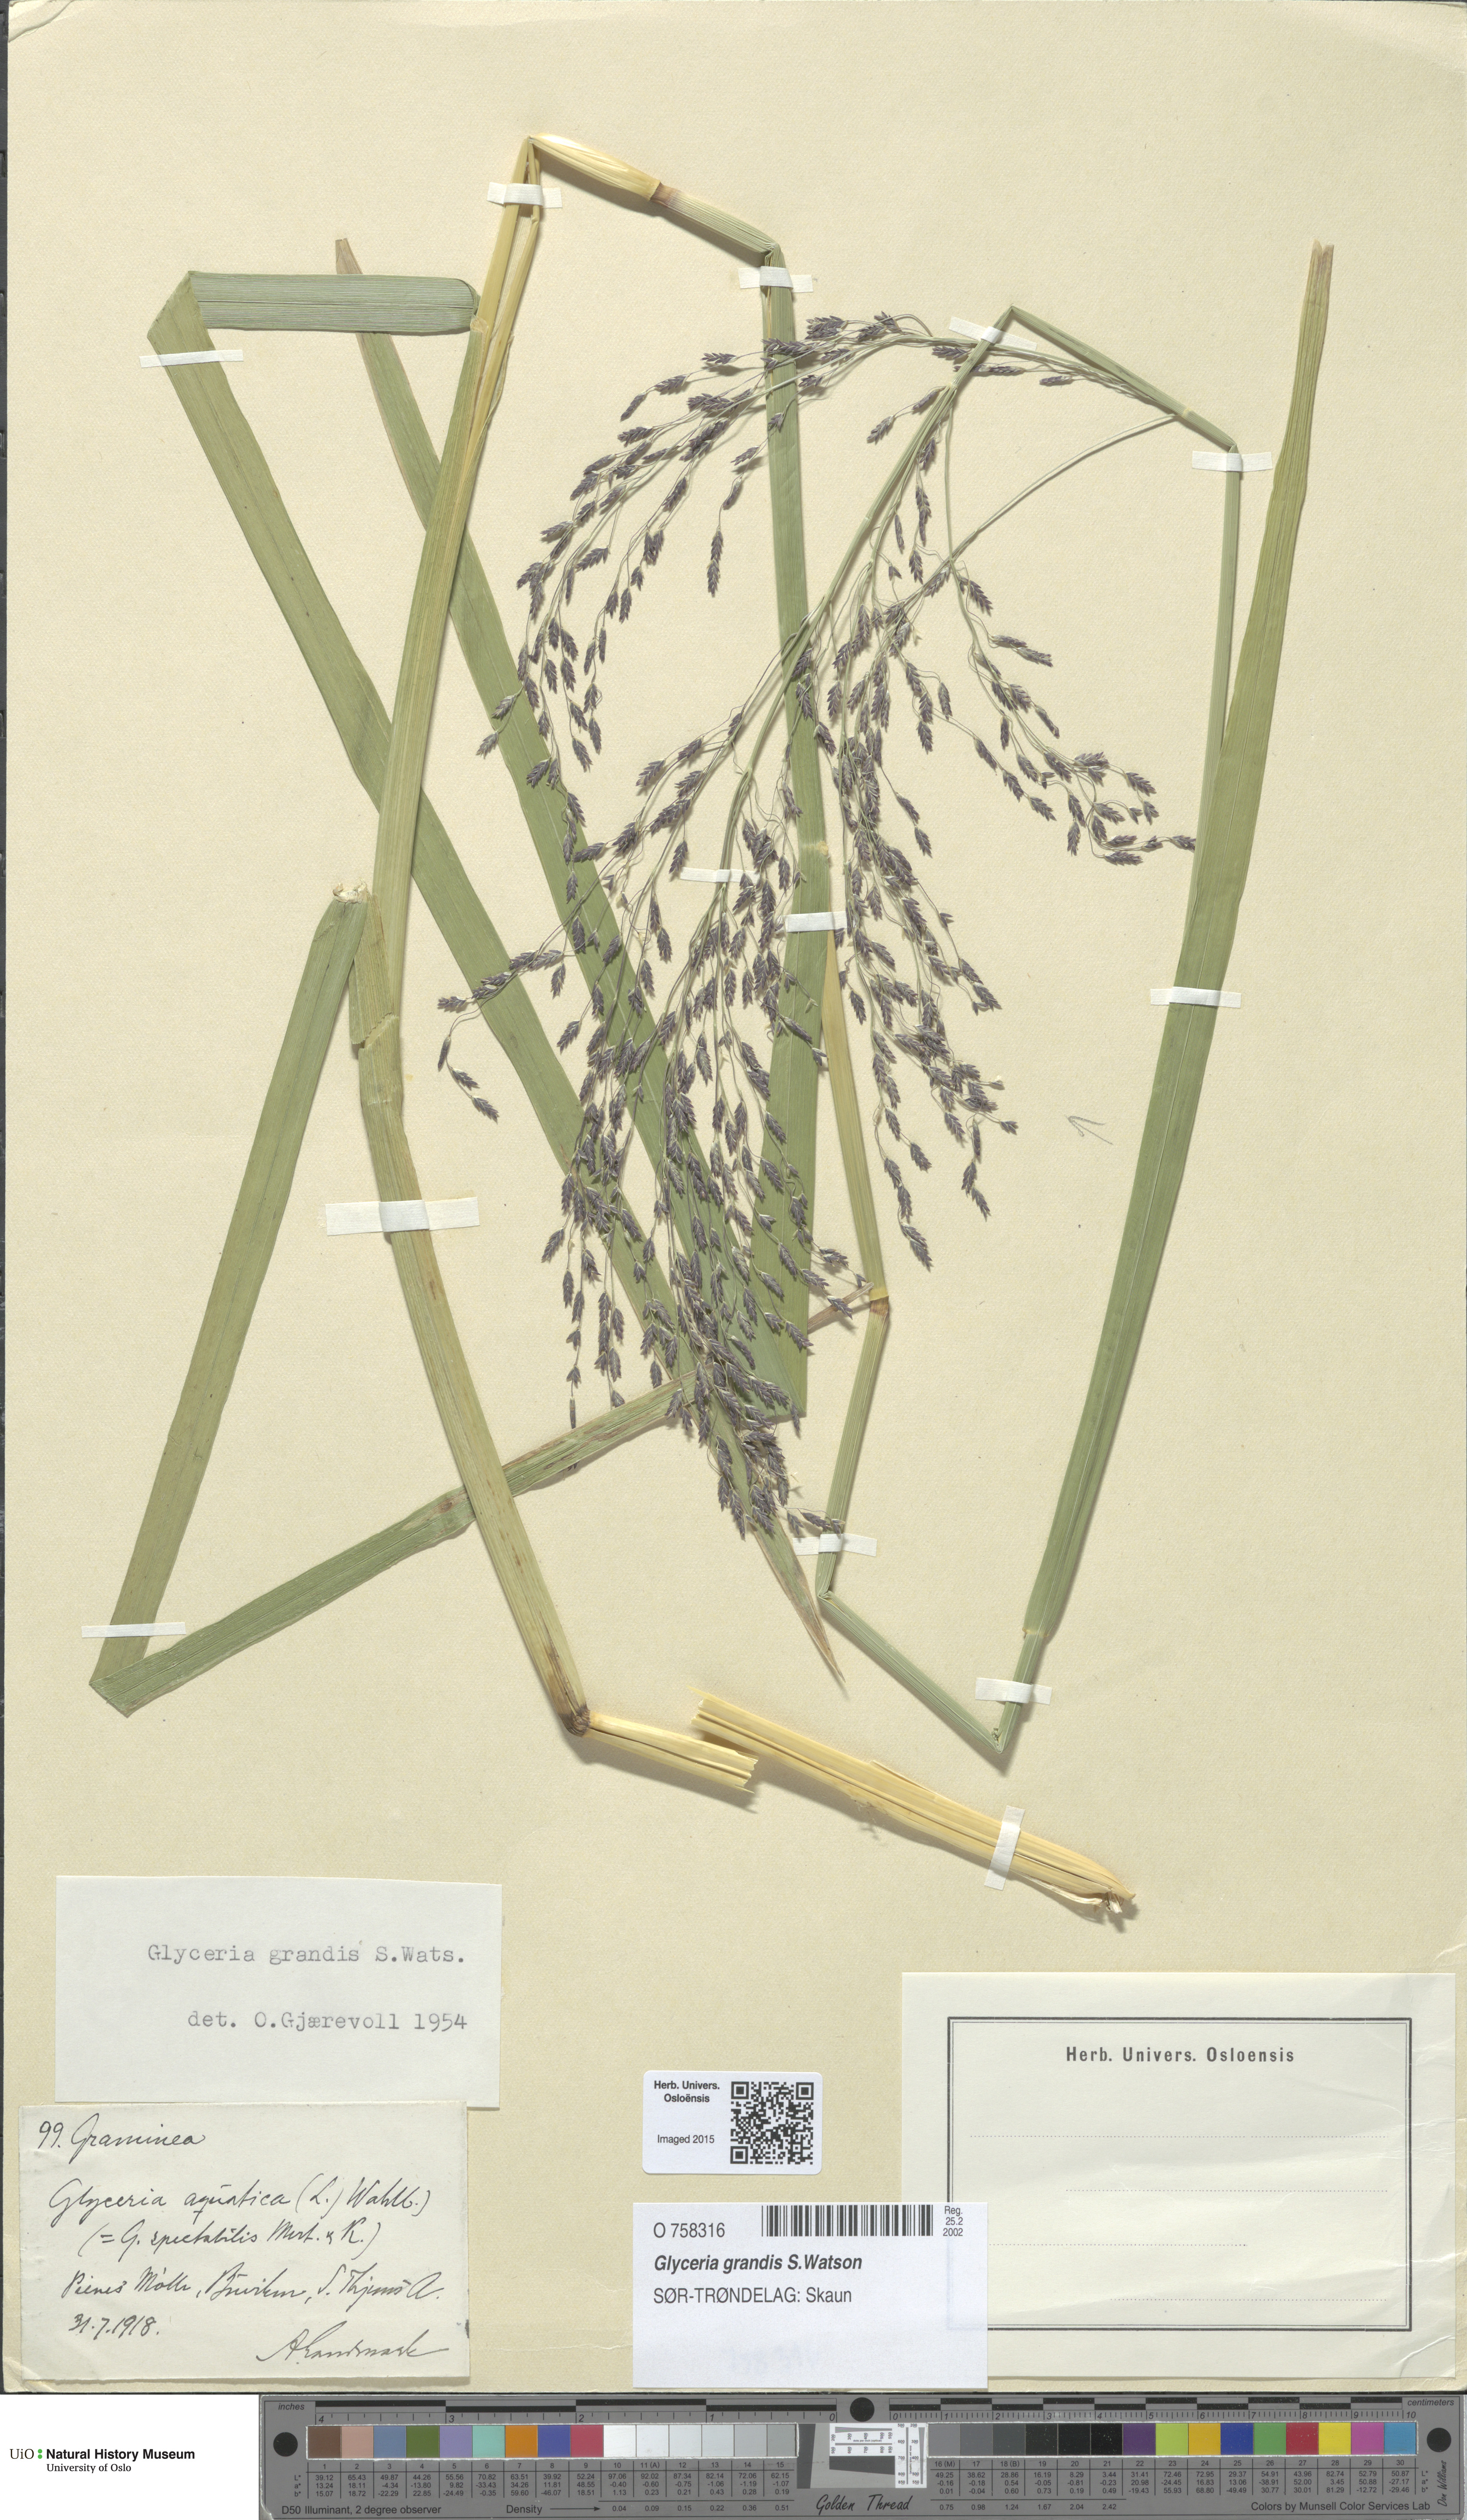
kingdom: Plantae
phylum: Tracheophyta
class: Liliopsida
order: Poales
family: Poaceae
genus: Glyceria
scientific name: Glyceria grandis
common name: American glyceria
